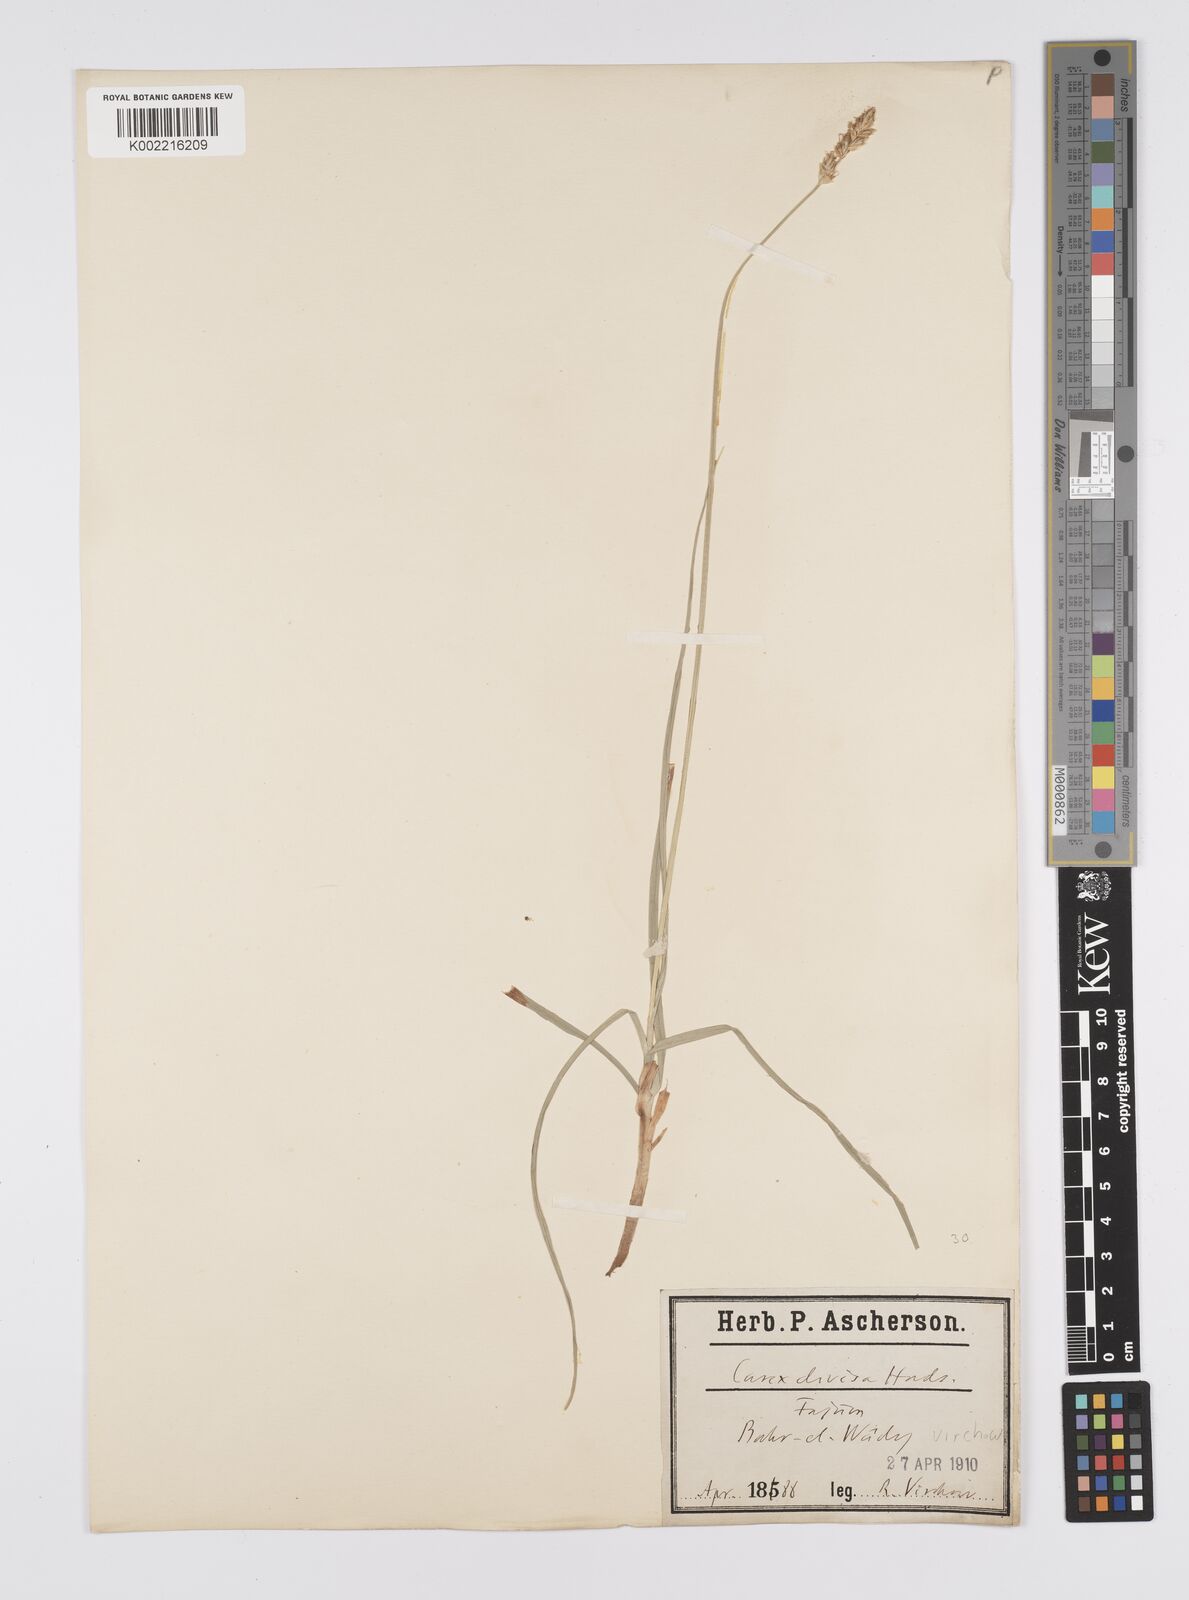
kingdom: Plantae
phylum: Tracheophyta
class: Liliopsida
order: Poales
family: Cyperaceae
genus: Carex
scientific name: Carex divisa
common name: Divided sedge
